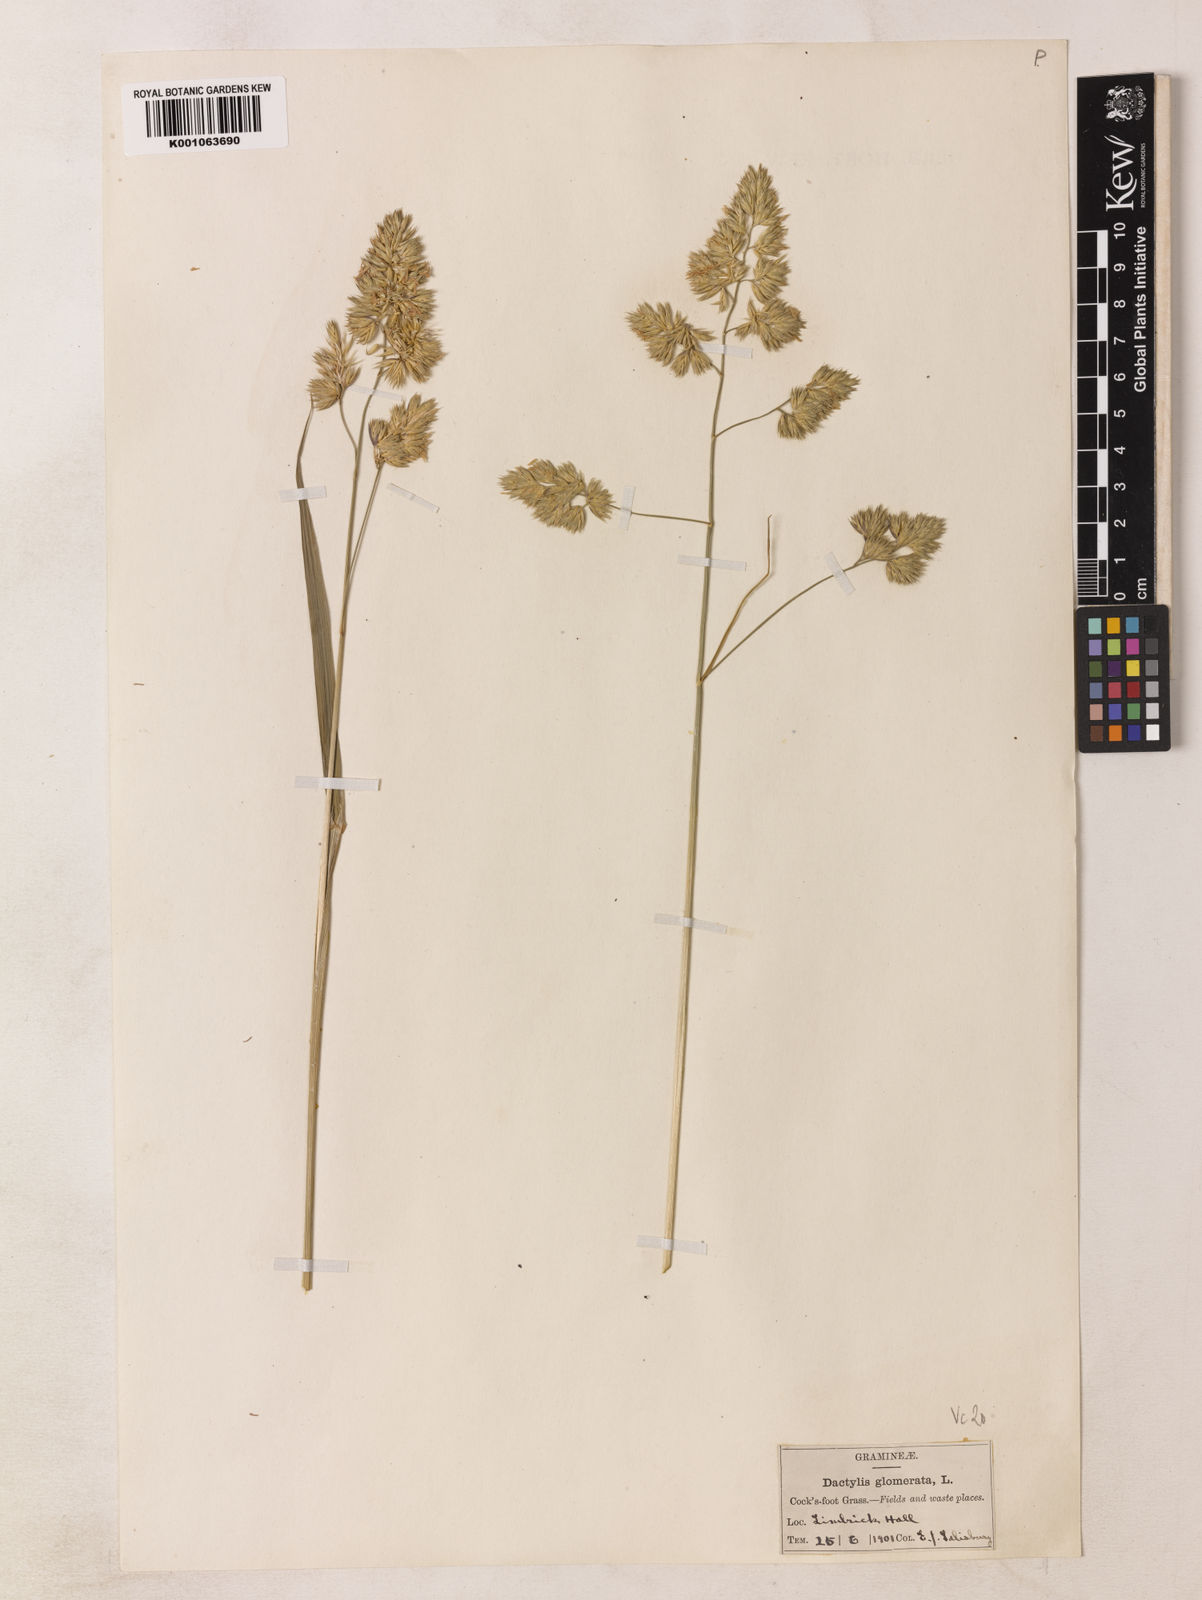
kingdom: Plantae
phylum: Tracheophyta
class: Liliopsida
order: Poales
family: Poaceae
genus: Dactylis
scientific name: Dactylis glomerata
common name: Orchardgrass
